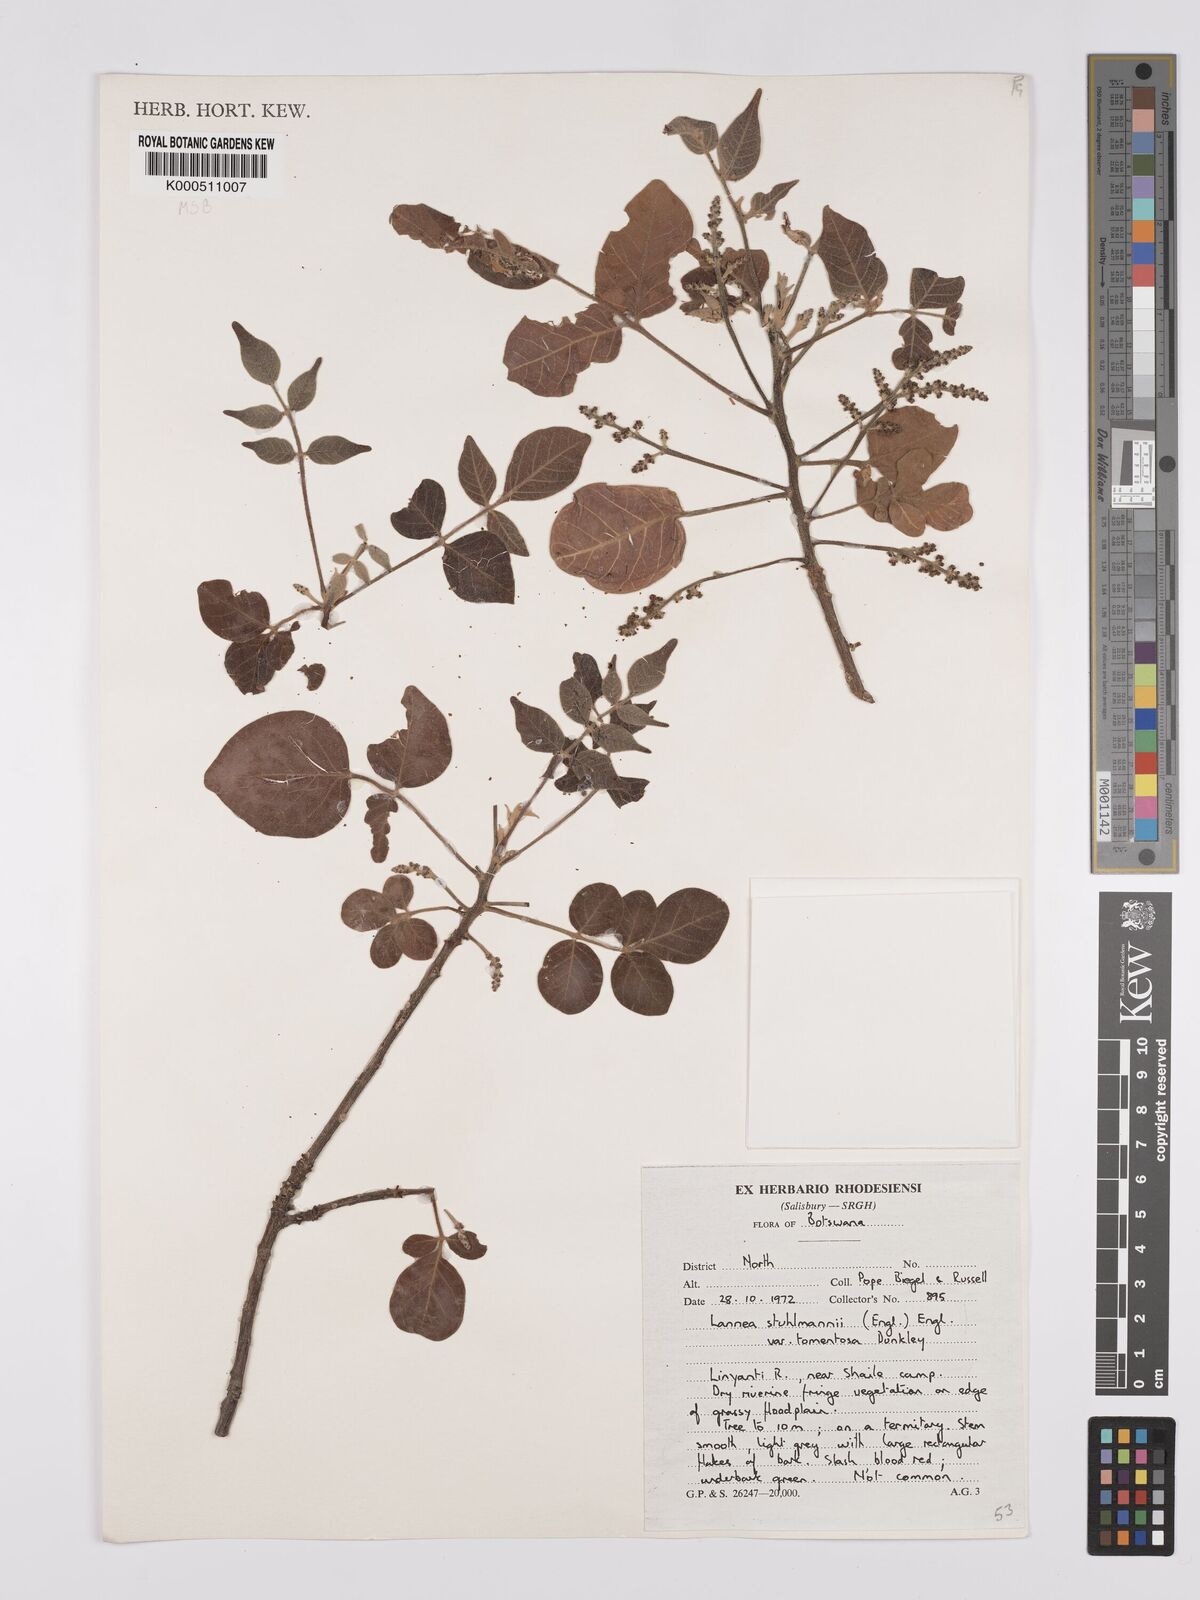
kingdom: Plantae
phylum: Tracheophyta
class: Magnoliopsida
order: Sapindales
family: Anacardiaceae
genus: Lannea
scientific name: Lannea schweinfurthii
